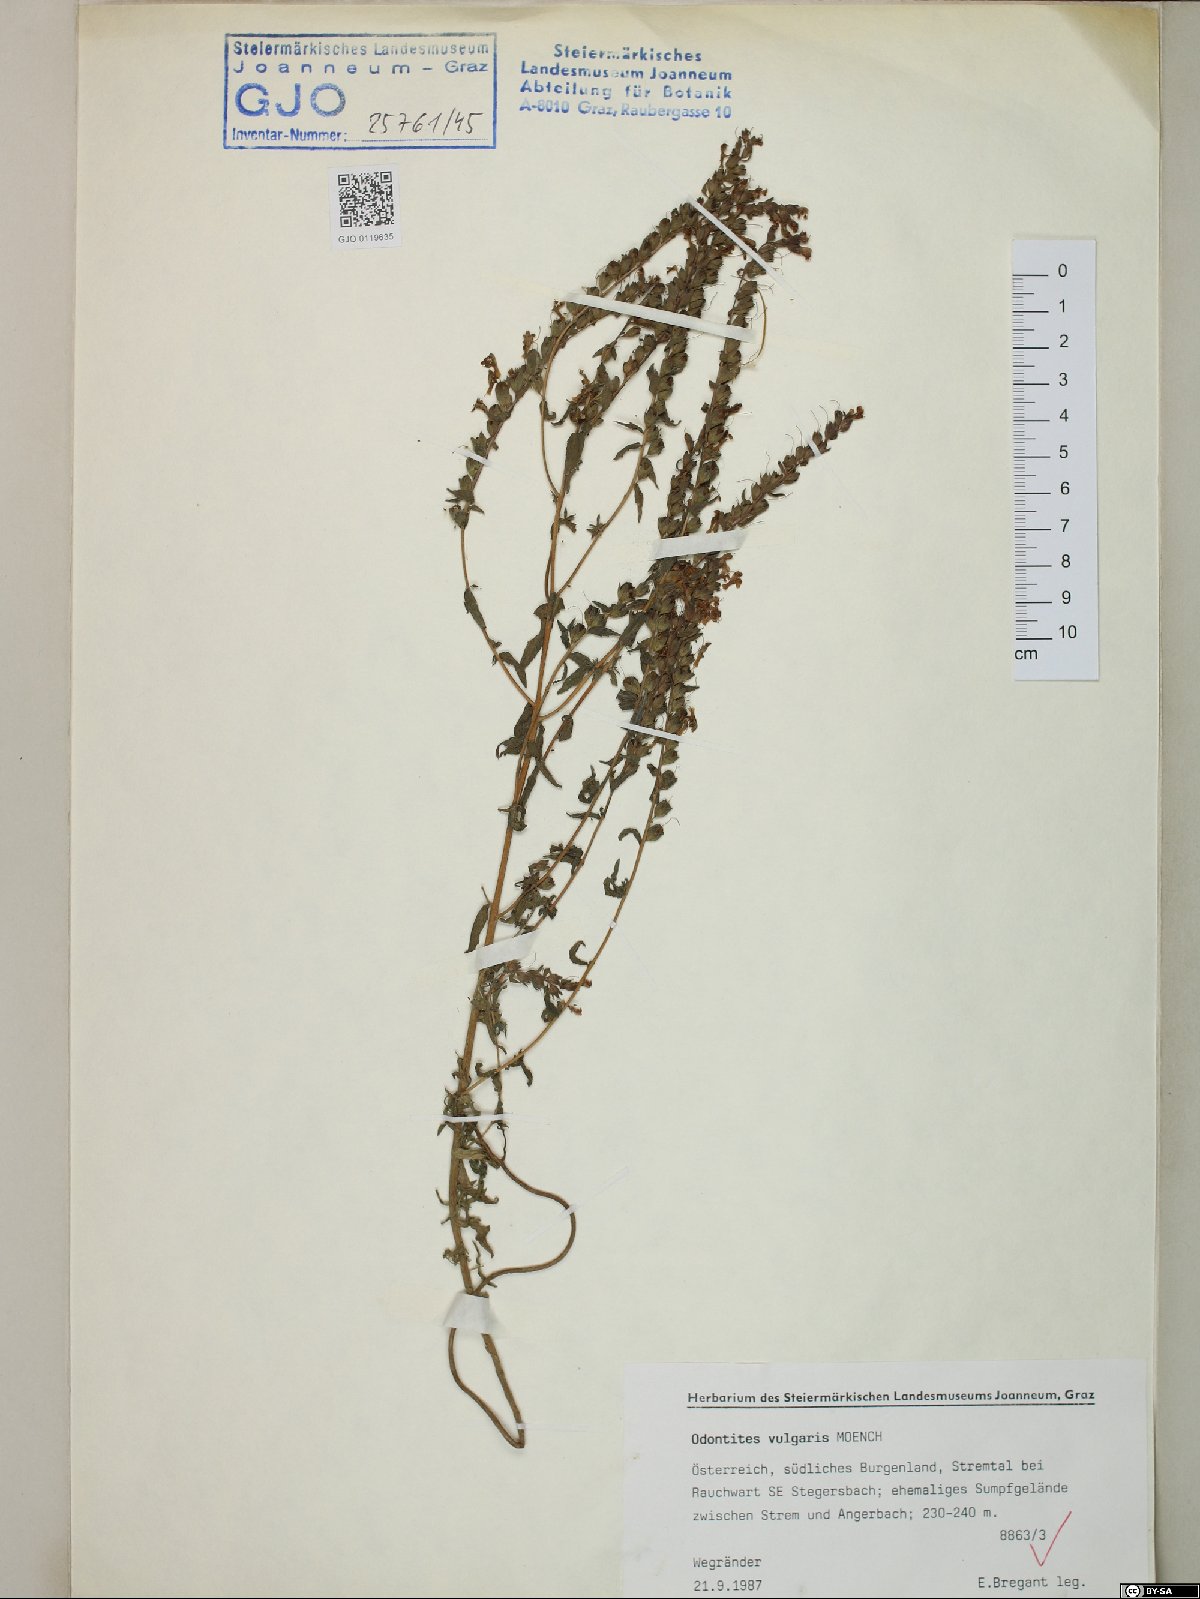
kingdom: Plantae
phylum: Tracheophyta
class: Magnoliopsida
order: Lamiales
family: Orobanchaceae
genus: Odontites
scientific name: Odontites vulgaris
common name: Broomrape
